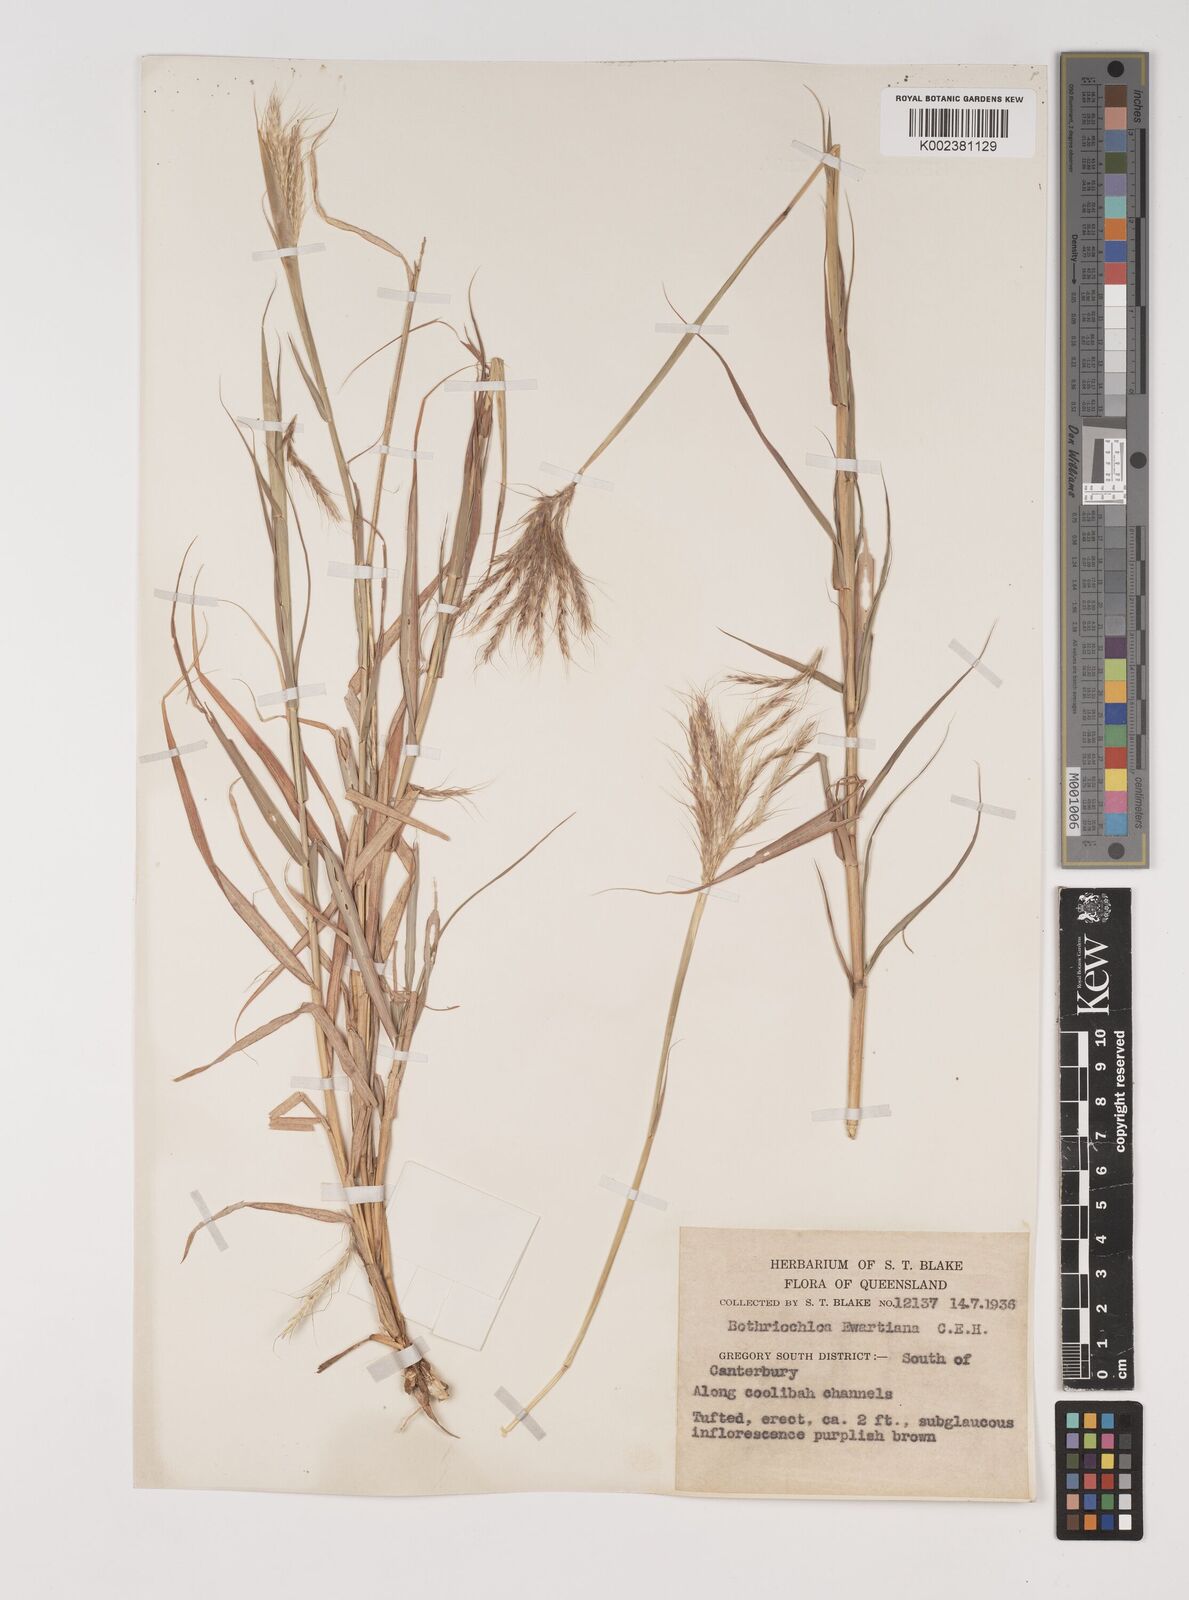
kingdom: Plantae
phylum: Tracheophyta
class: Liliopsida
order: Poales
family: Poaceae
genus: Bothriochloa
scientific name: Bothriochloa ewartiana
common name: Desert-bluegrass
